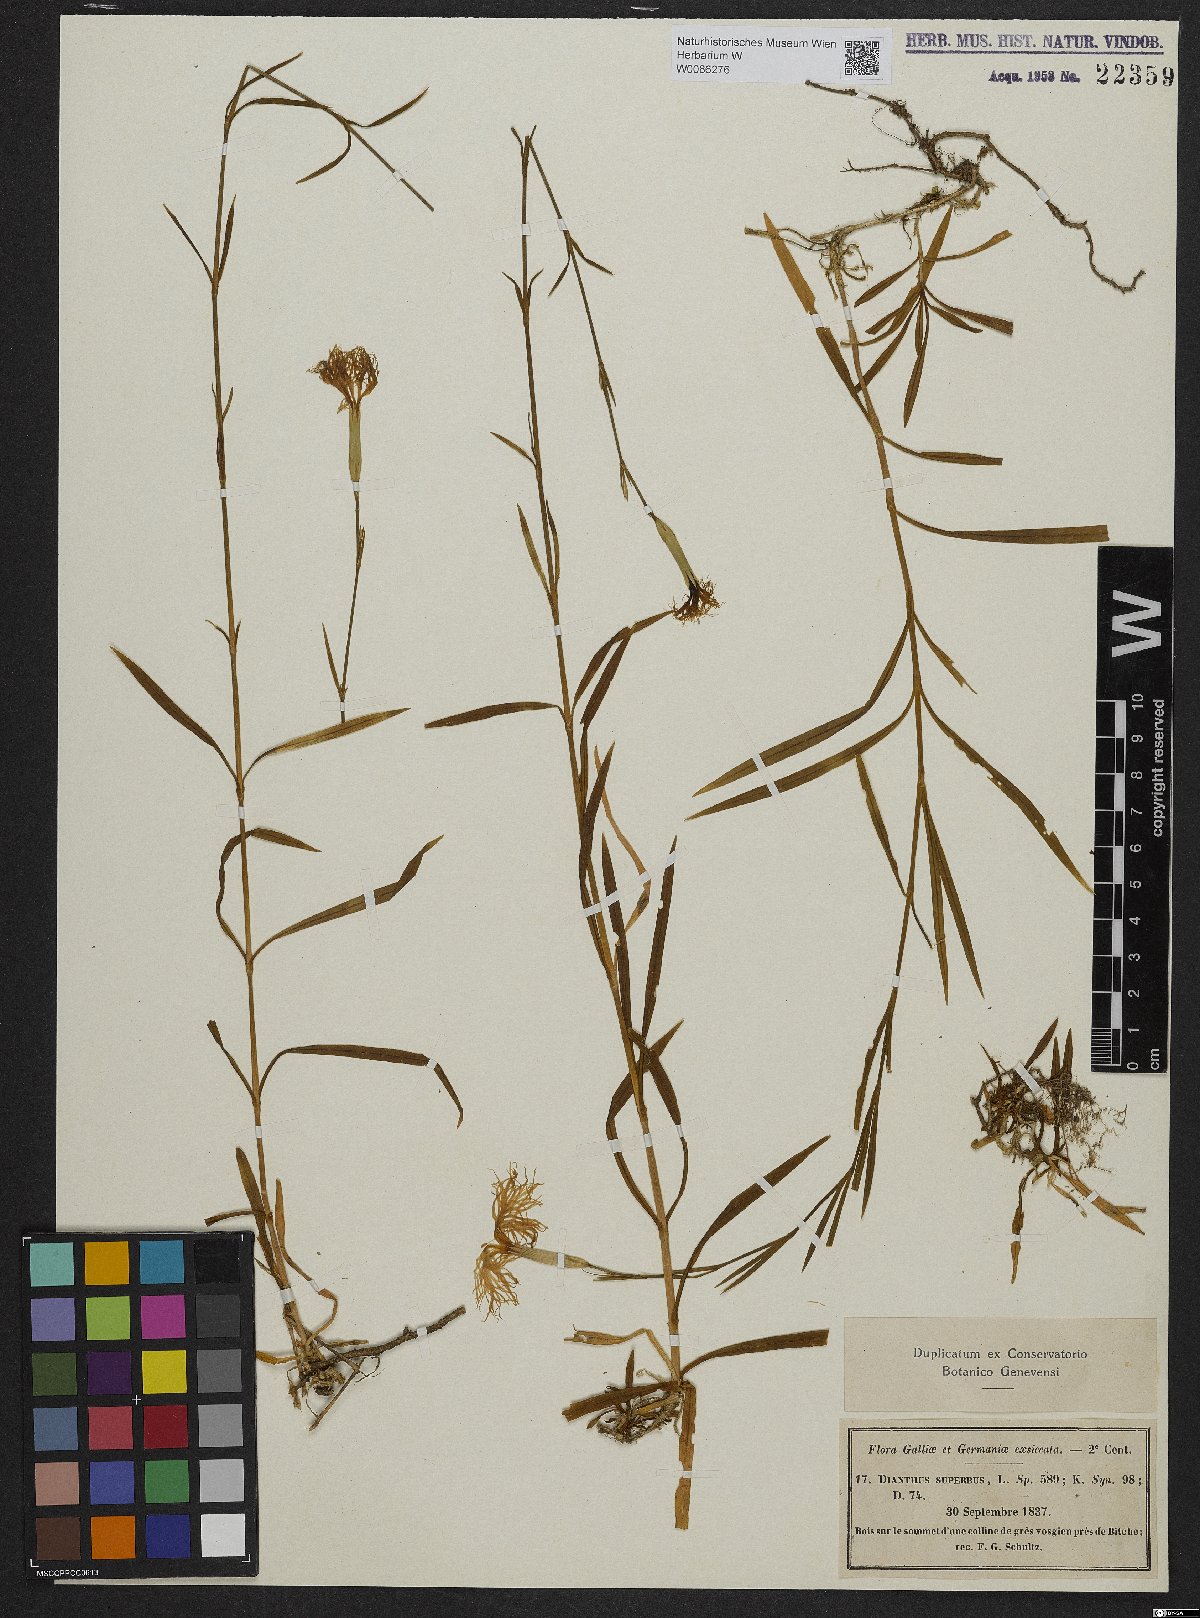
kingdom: Plantae
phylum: Tracheophyta
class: Magnoliopsida
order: Caryophyllales
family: Caryophyllaceae
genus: Dianthus
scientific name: Dianthus superbus
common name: Fringed pink
